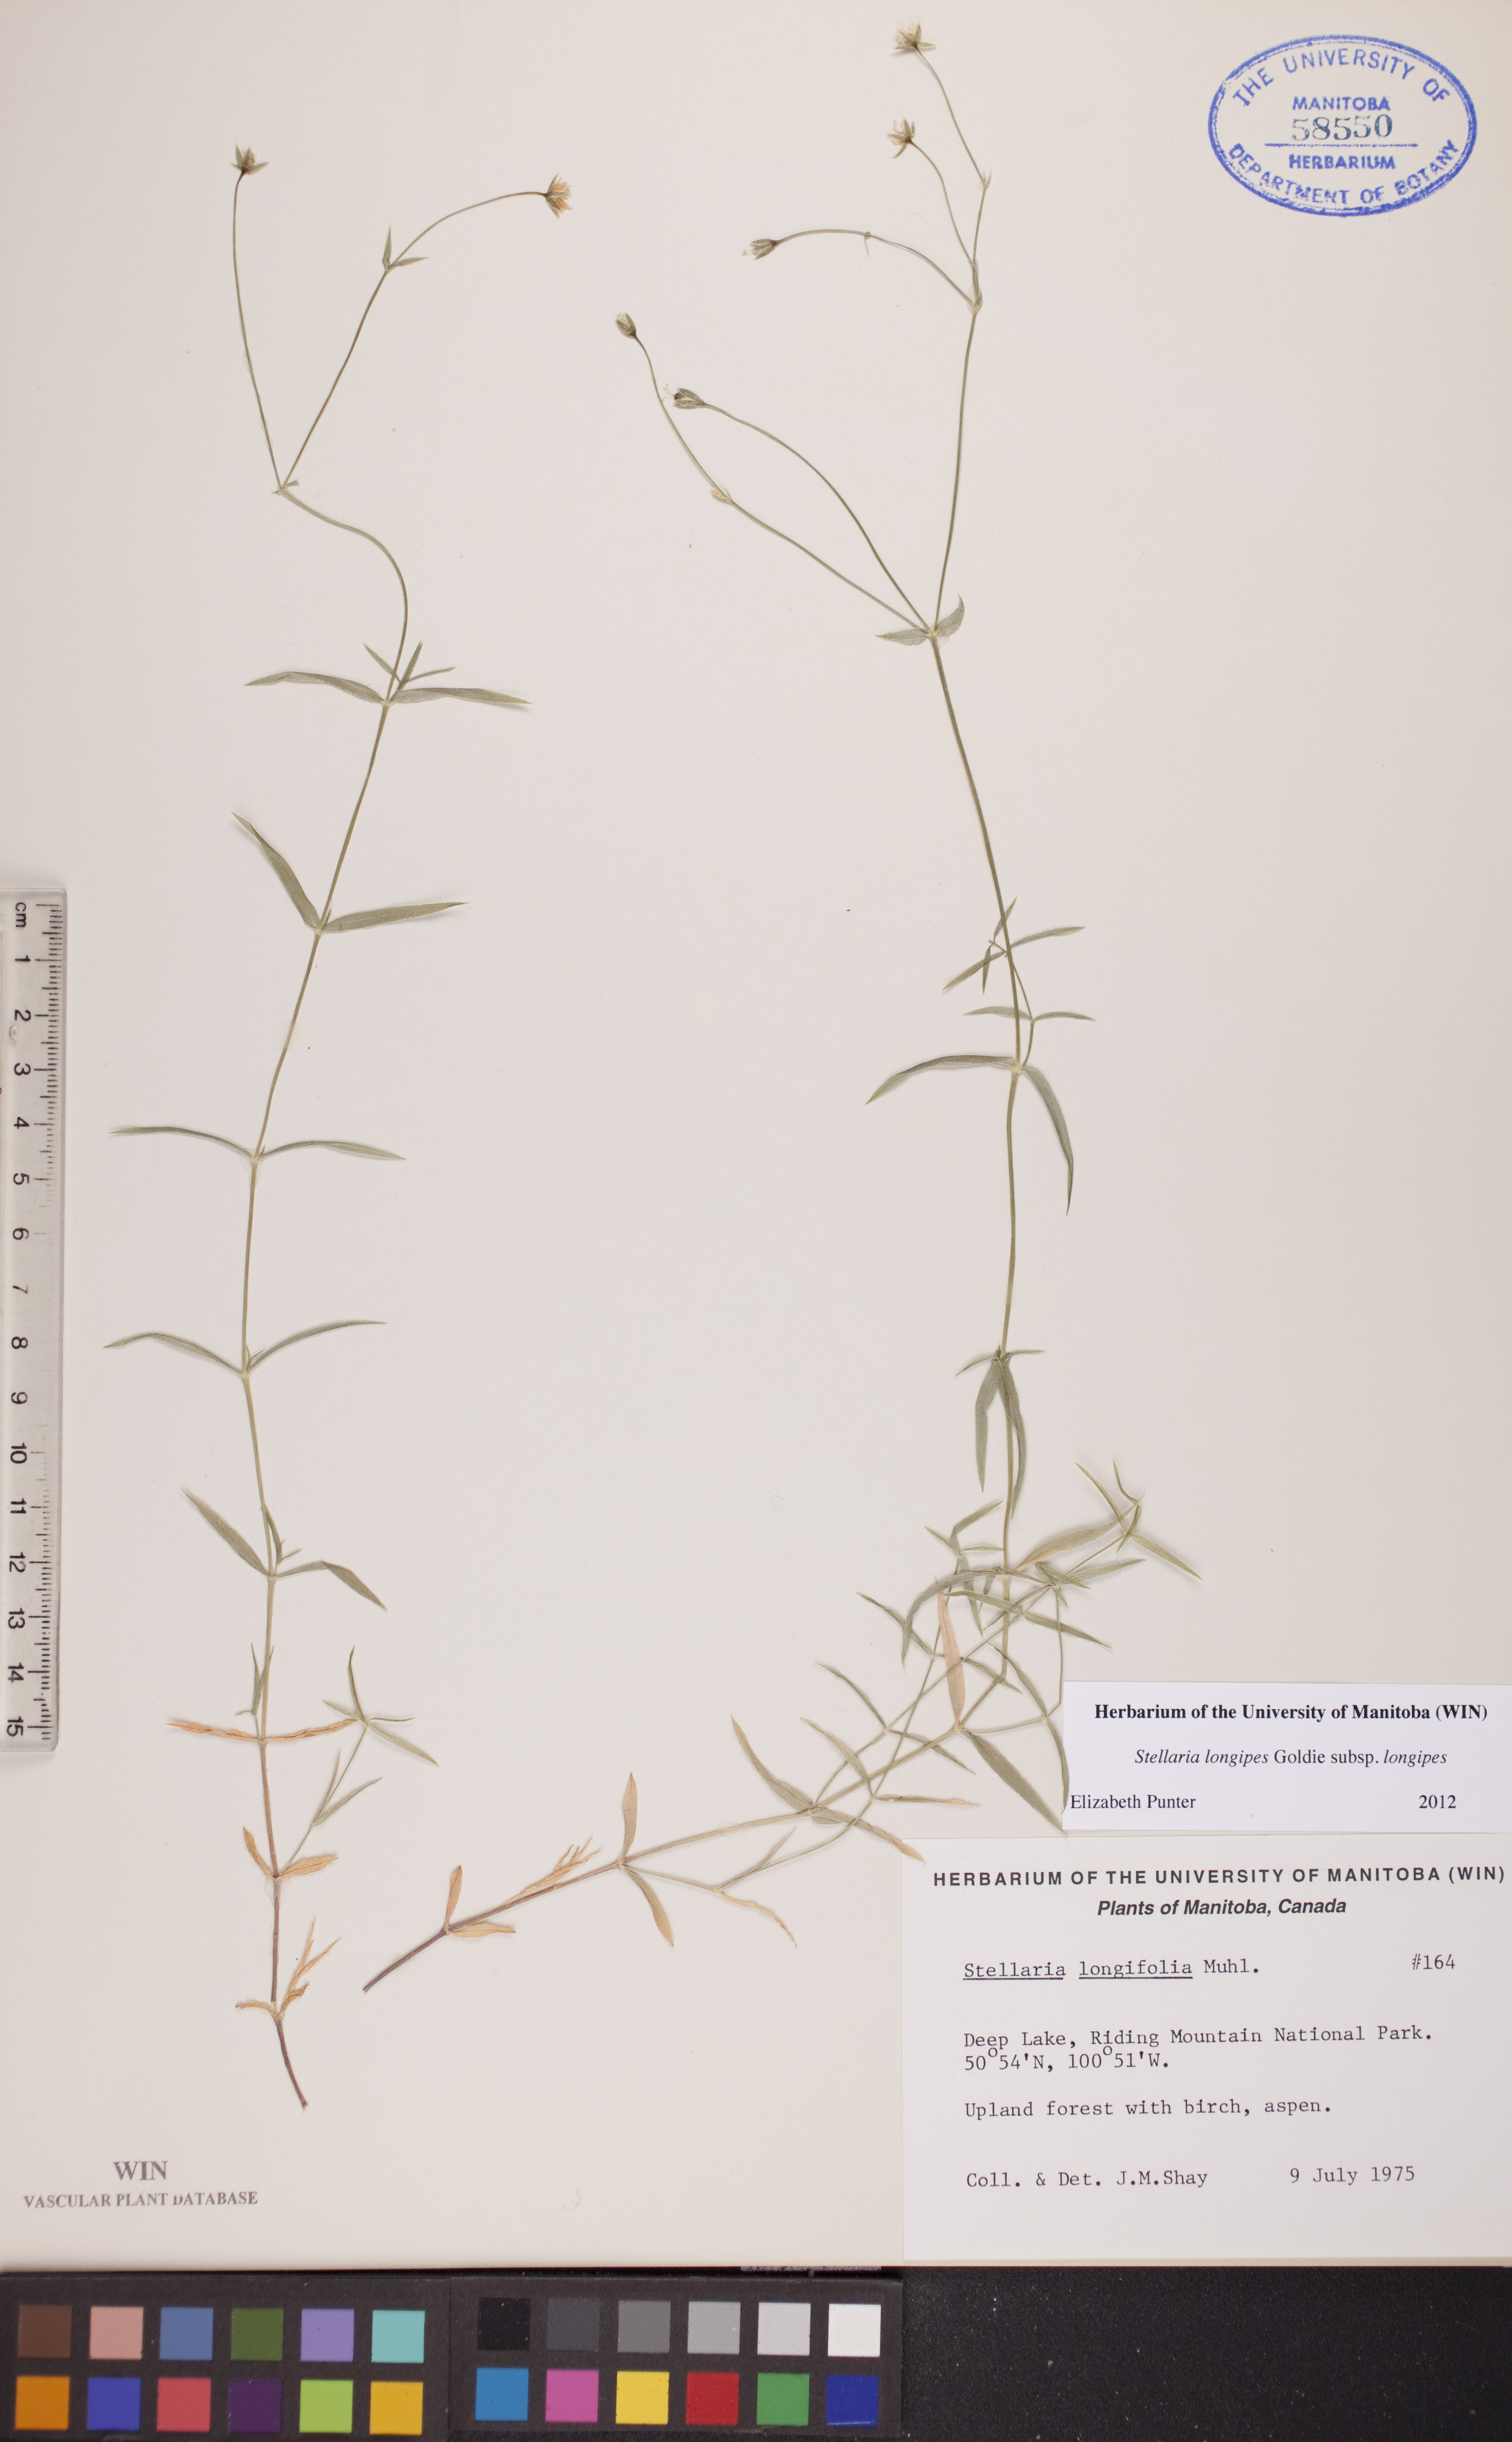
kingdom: Plantae
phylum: Tracheophyta
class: Magnoliopsida
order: Caryophyllales
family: Caryophyllaceae
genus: Stellaria
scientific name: Stellaria longipes
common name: Goldie's starwort
